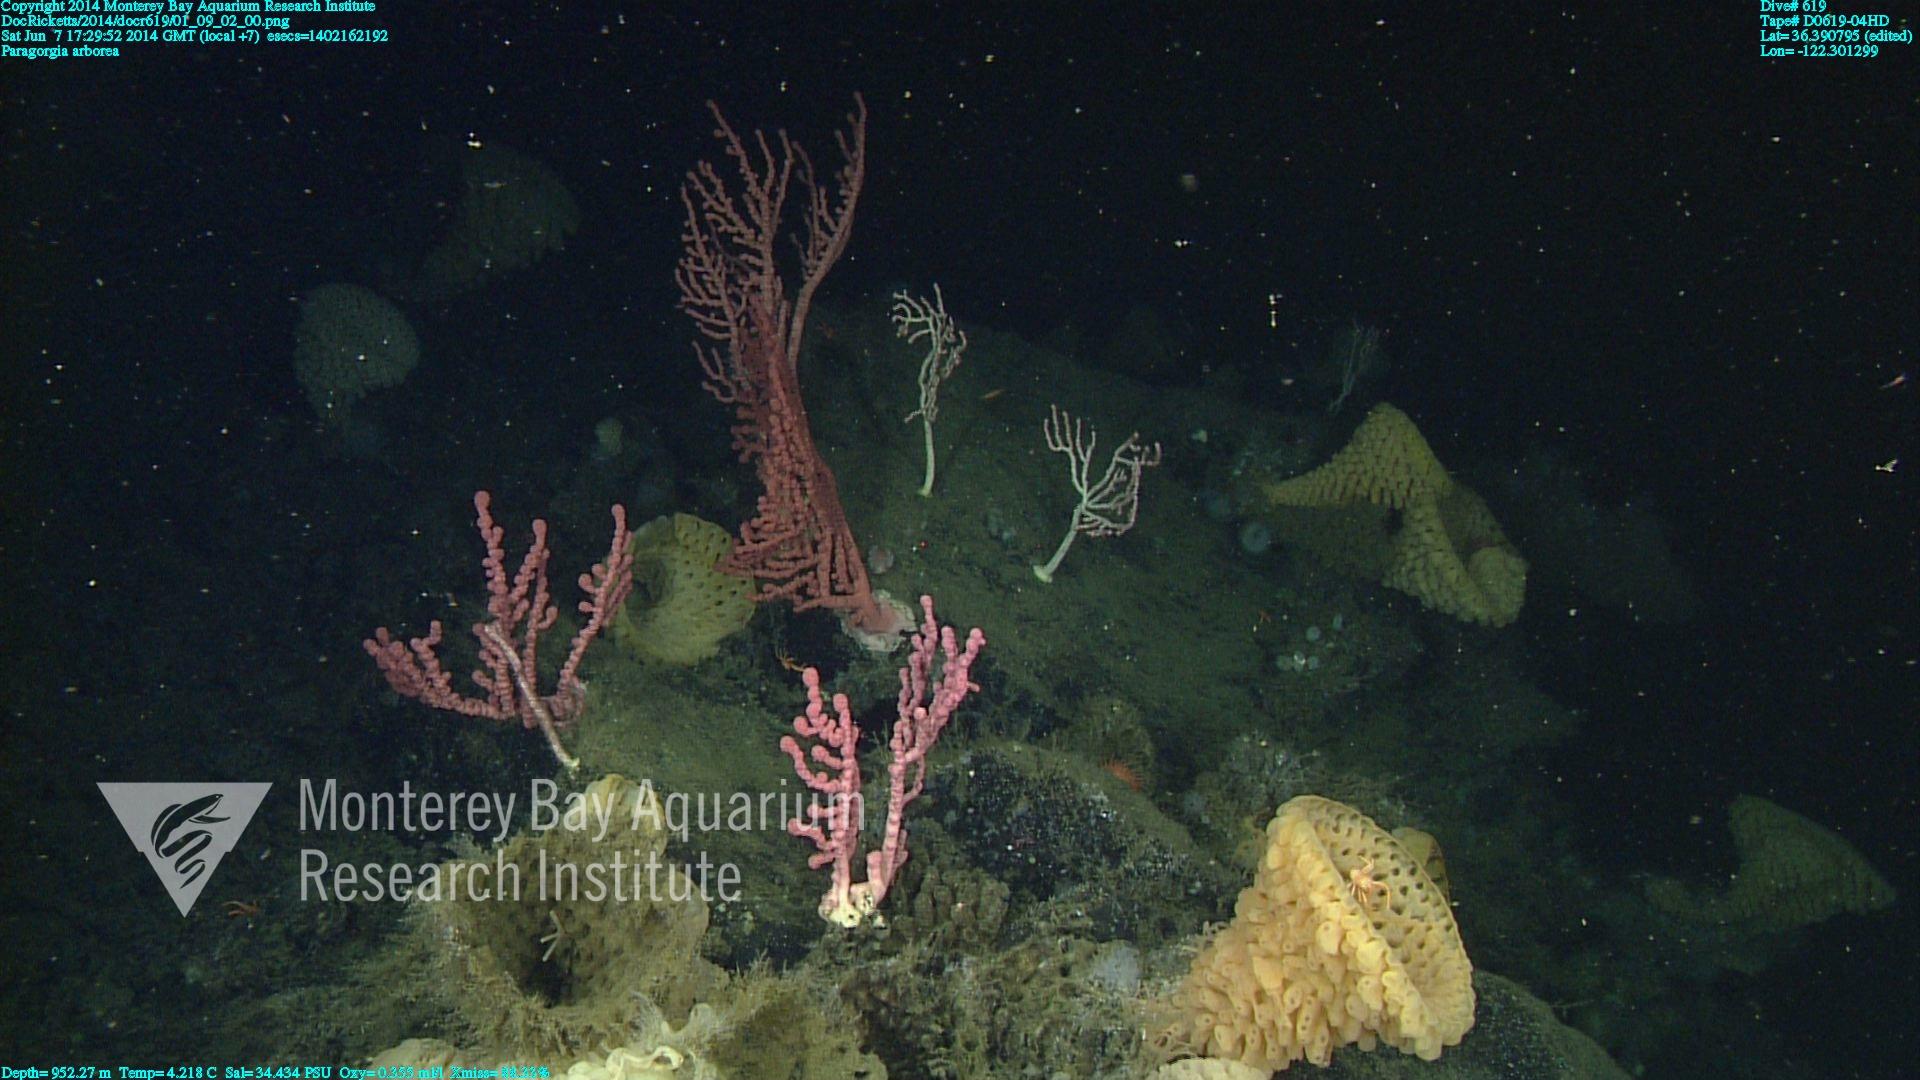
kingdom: Animalia
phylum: Cnidaria
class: Anthozoa
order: Scleralcyonacea
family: Coralliidae
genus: Paragorgia
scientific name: Paragorgia arborea
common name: Bubble gum coral
